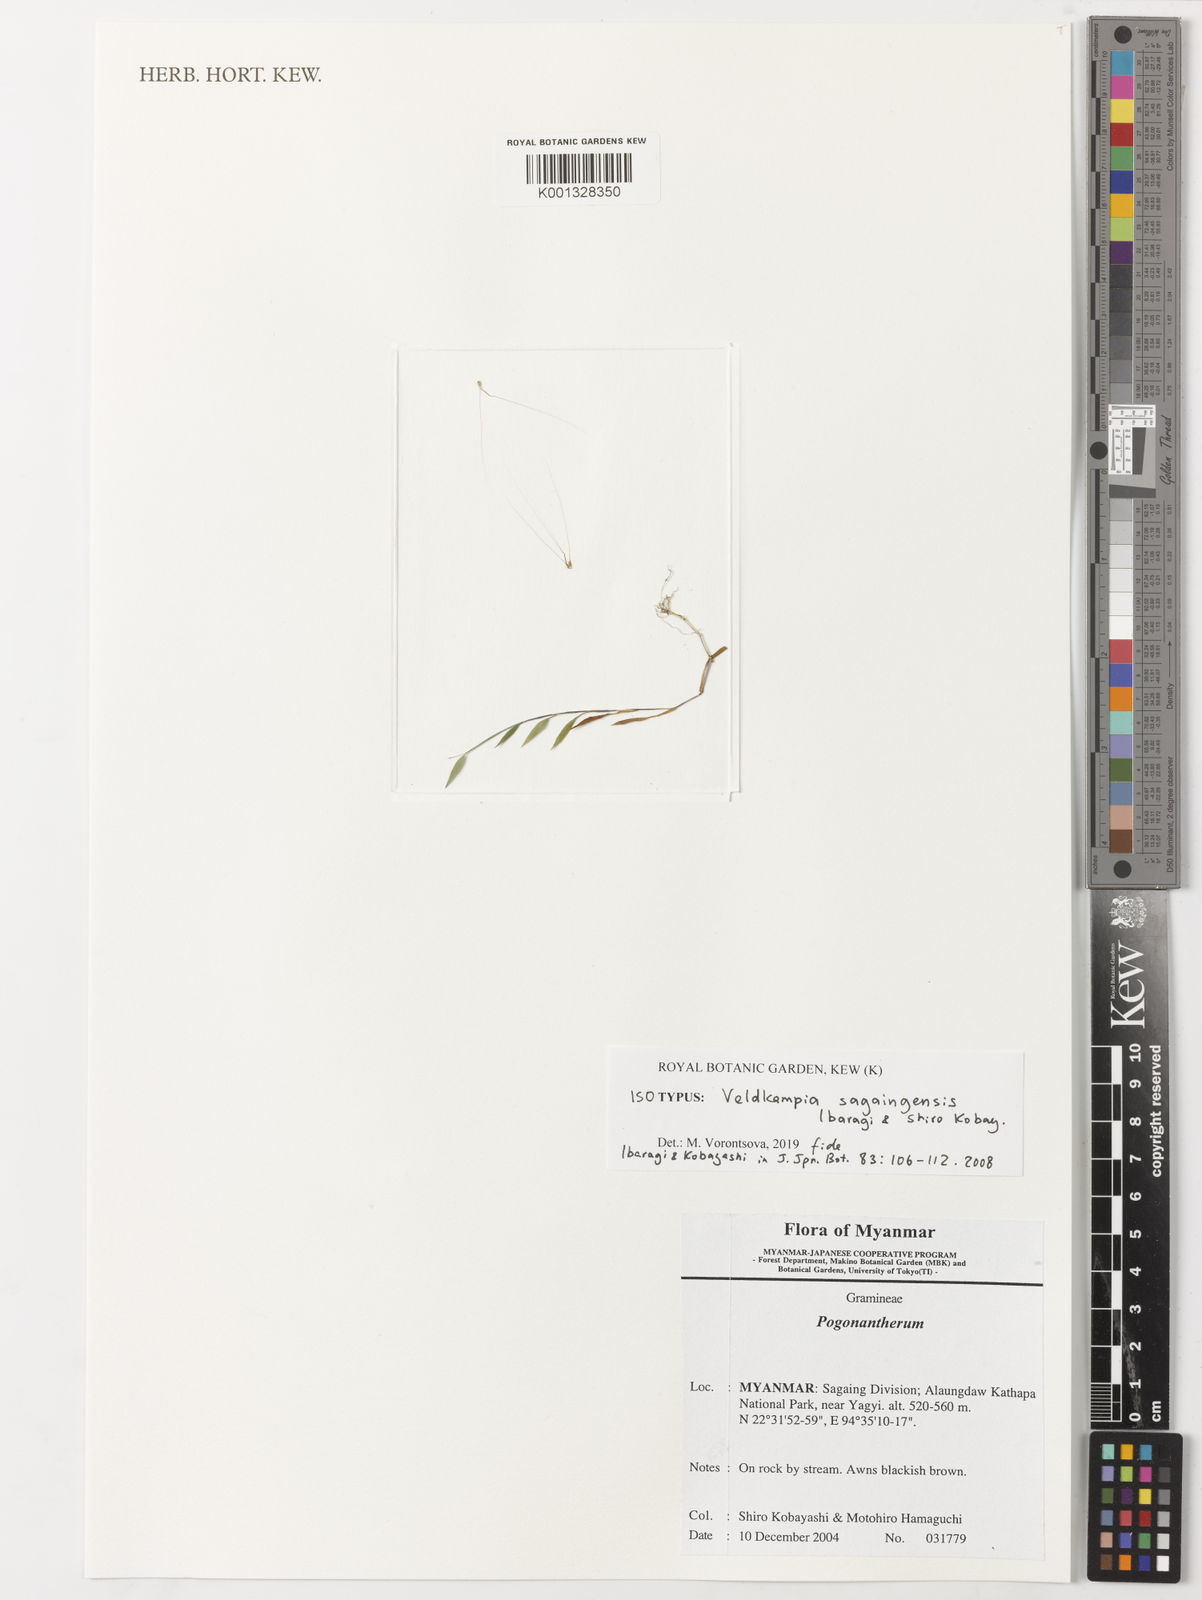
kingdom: Plantae
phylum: Tracheophyta
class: Liliopsida
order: Poales
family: Poaceae
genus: Veldkampia
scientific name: Veldkampia sagaingensis
